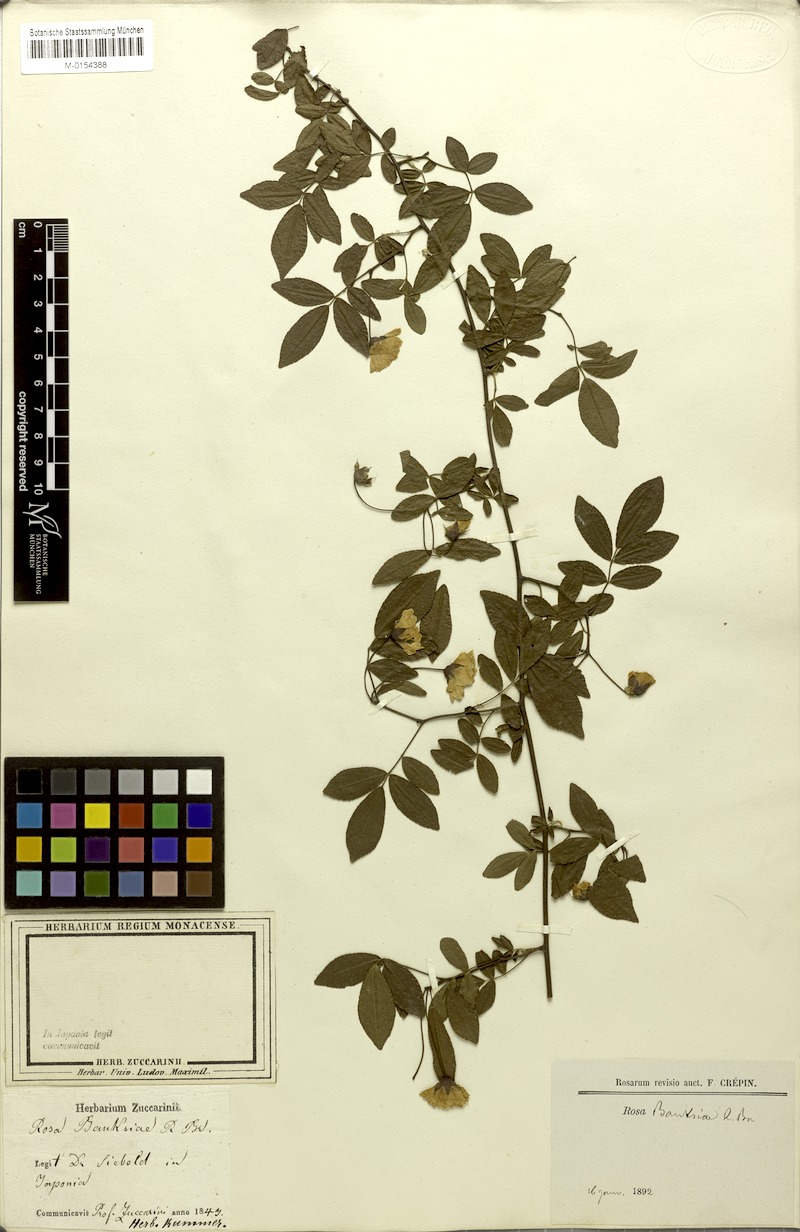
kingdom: Plantae
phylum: Tracheophyta
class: Magnoliopsida
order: Rosales
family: Rosaceae
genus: Rosa
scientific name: Rosa banksiae
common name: Banksian rose
